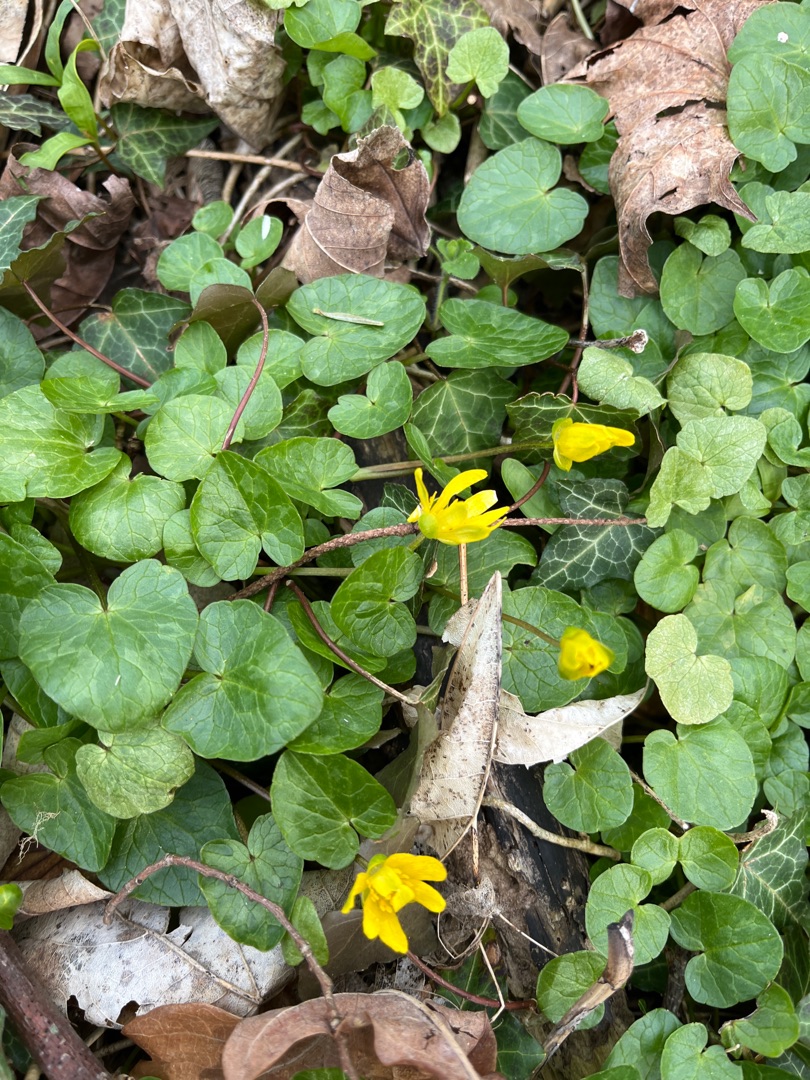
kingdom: Plantae
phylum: Tracheophyta
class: Magnoliopsida
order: Ranunculales
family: Ranunculaceae
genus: Ficaria
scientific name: Ficaria verna
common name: Vorterod
